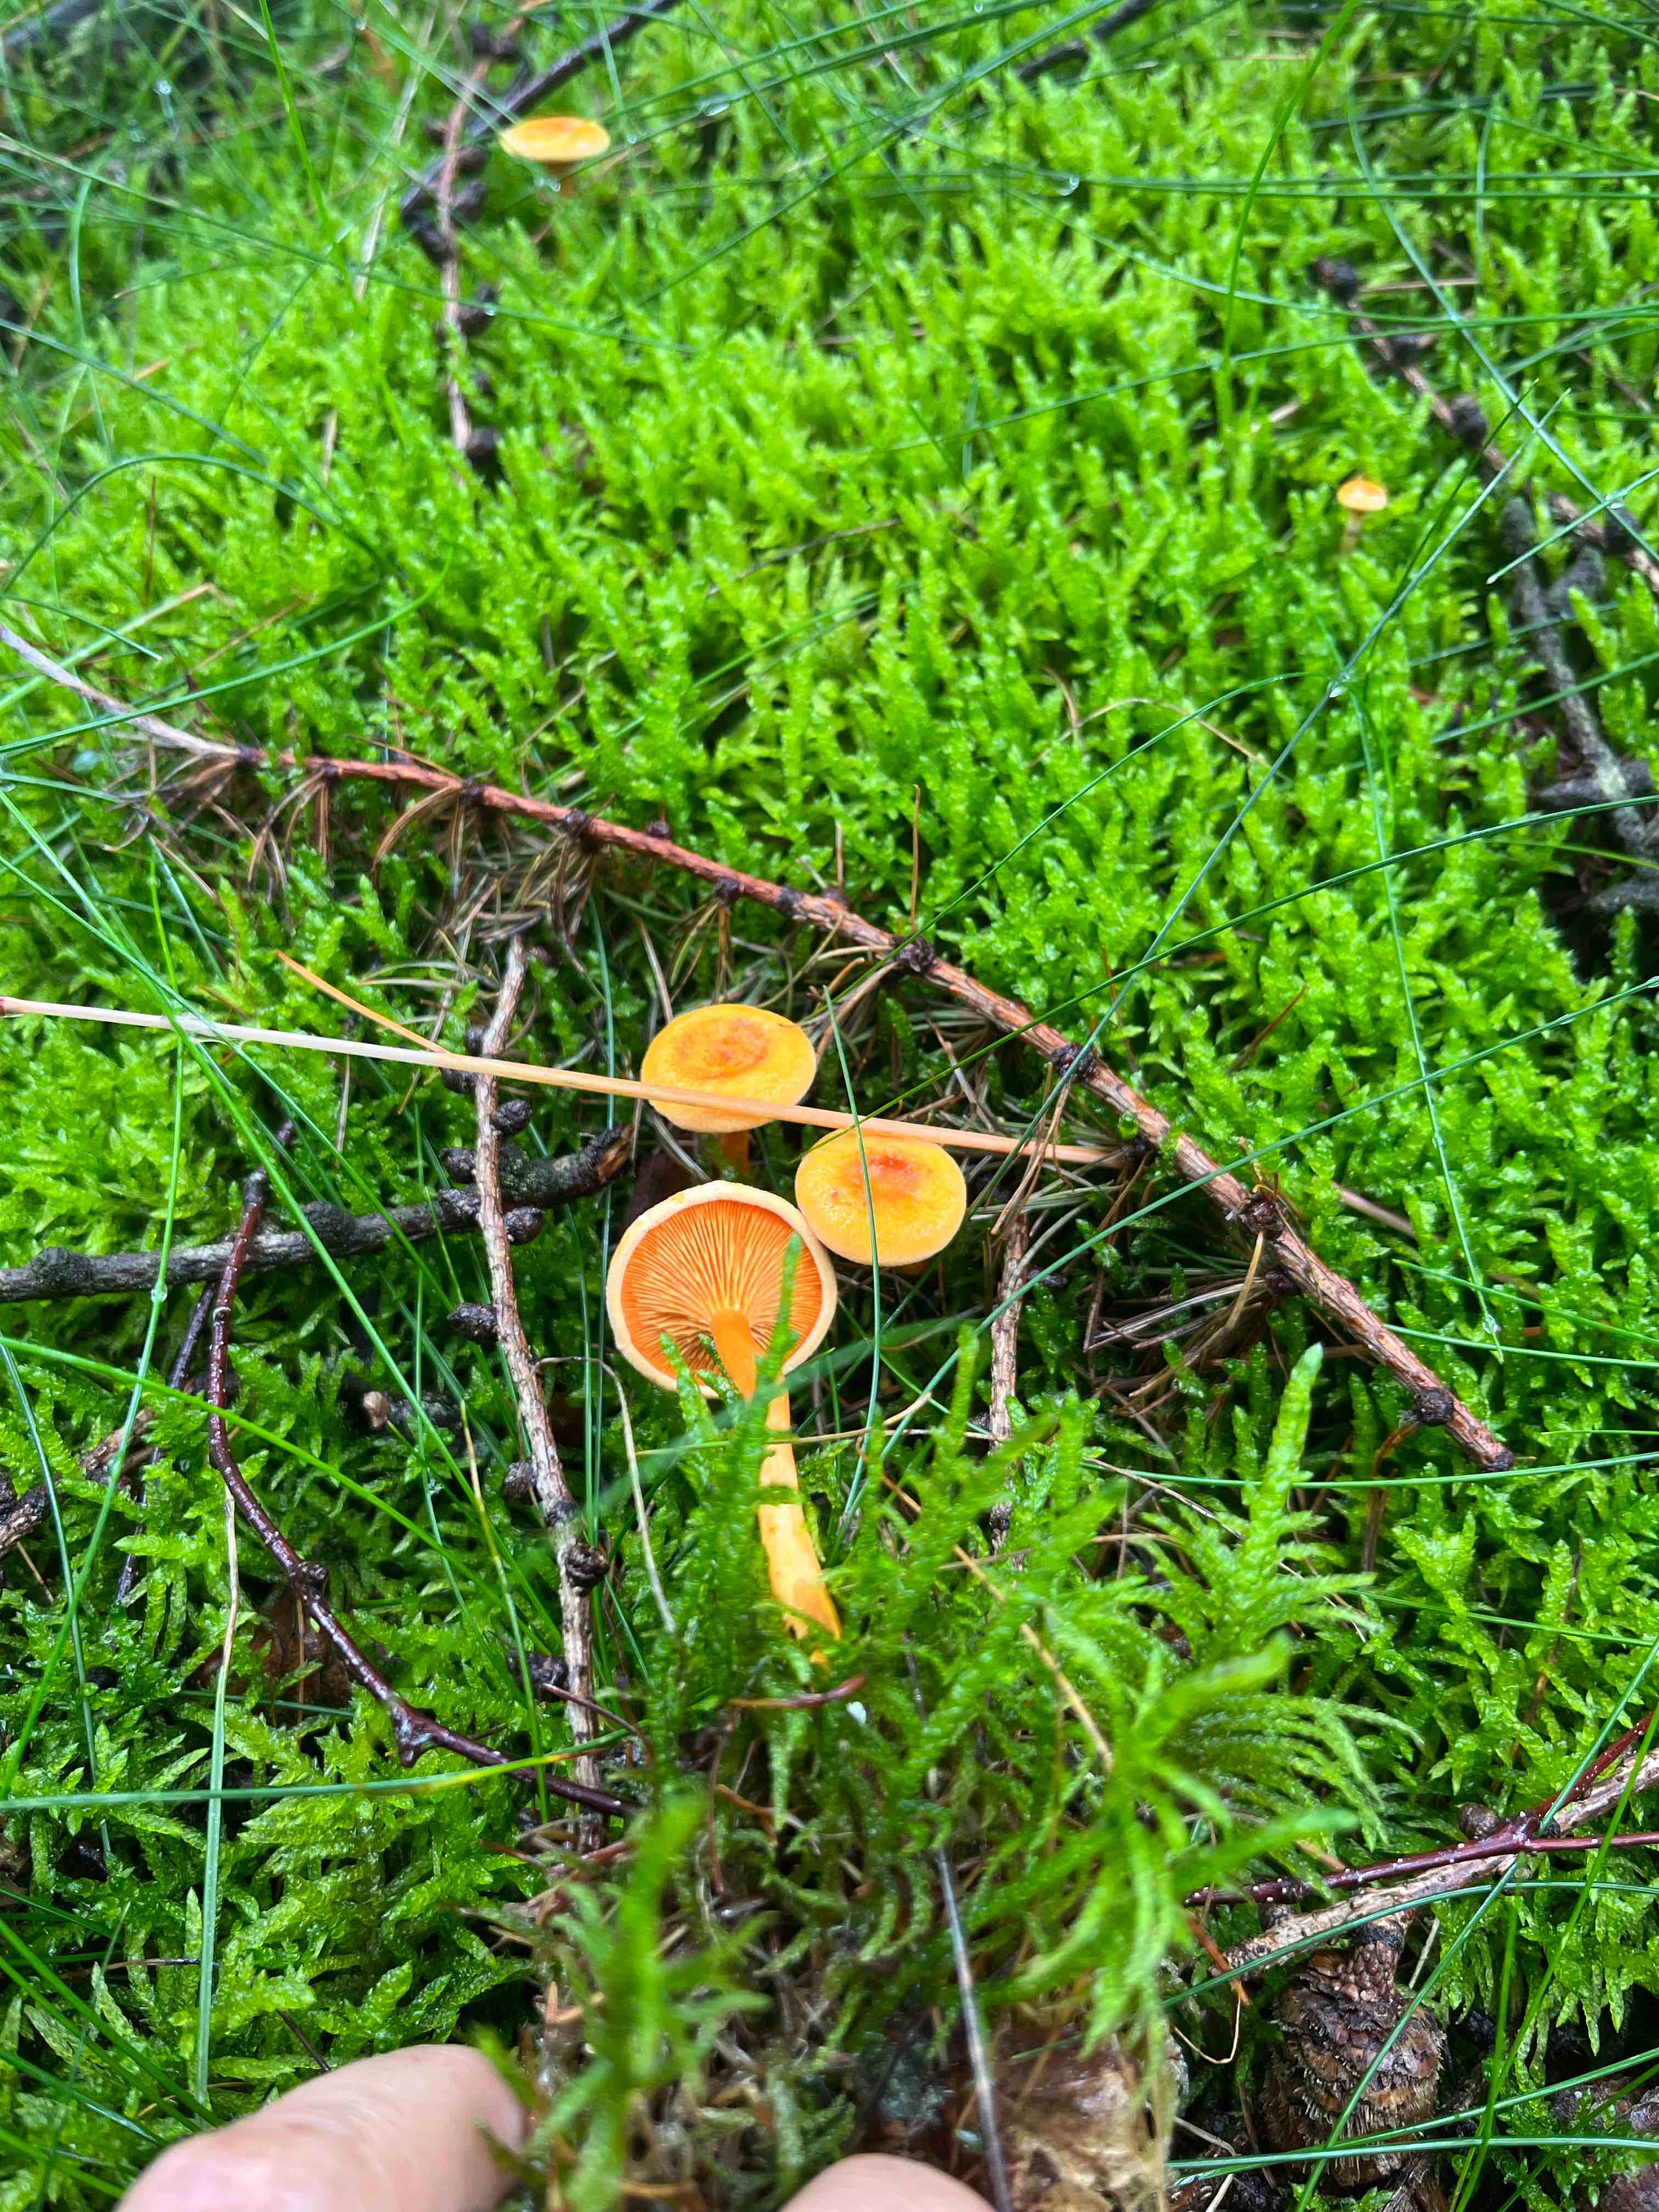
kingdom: Fungi
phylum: Basidiomycota
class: Agaricomycetes
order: Boletales
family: Hygrophoropsidaceae
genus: Hygrophoropsis
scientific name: Hygrophoropsis aurantiaca
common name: almindelig orangekantarel
